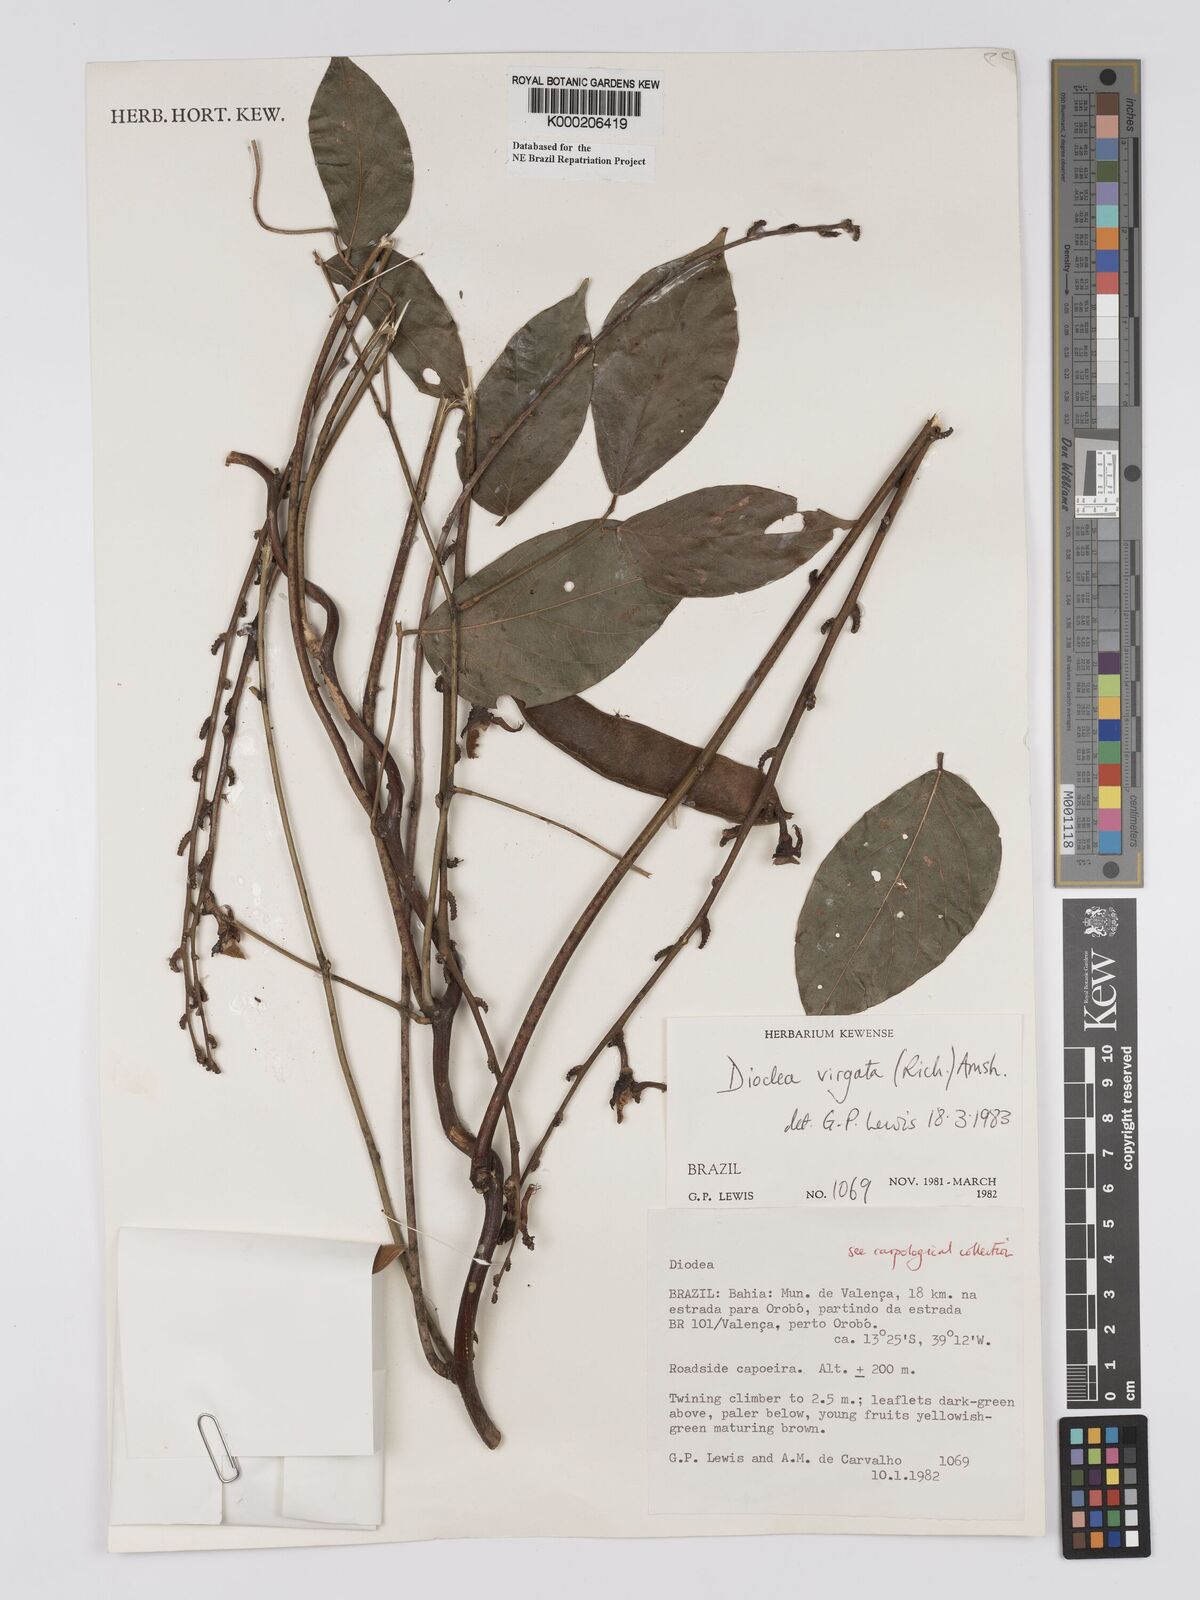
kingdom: Plantae
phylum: Tracheophyta
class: Magnoliopsida
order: Fabales
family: Fabaceae
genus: Dioclea
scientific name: Dioclea virgata
